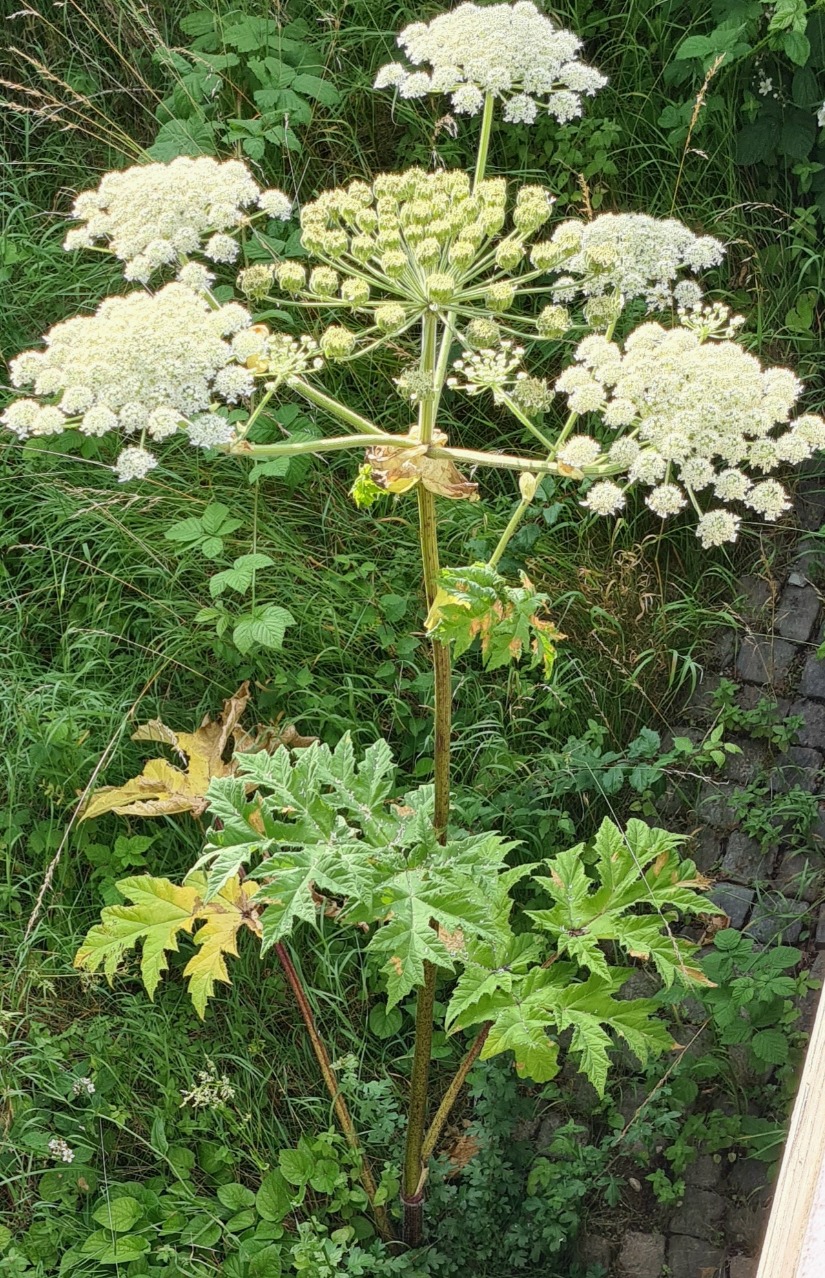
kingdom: Plantae
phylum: Tracheophyta
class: Magnoliopsida
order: Apiales
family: Apiaceae
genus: Heracleum
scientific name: Heracleum mantegazzianum
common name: Kæmpe-bjørneklo
